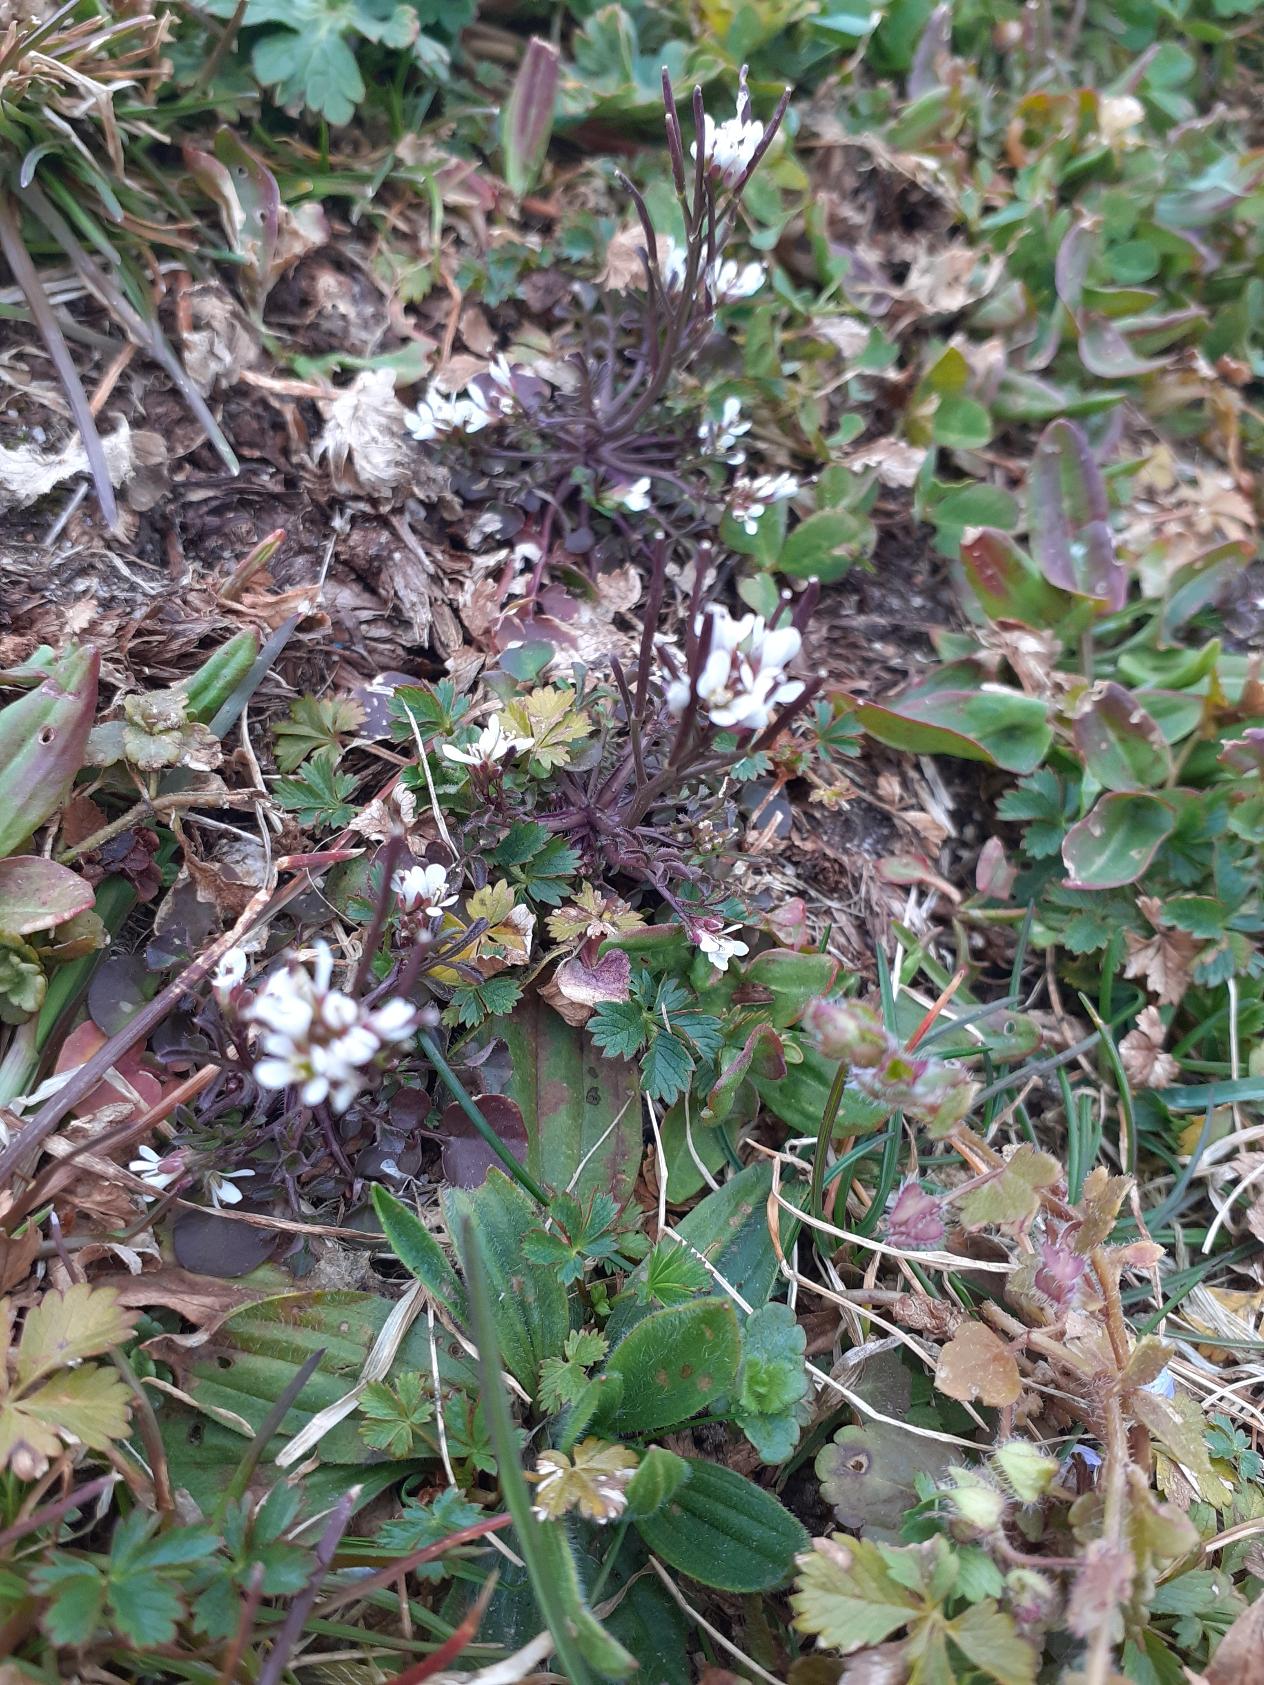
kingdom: Plantae
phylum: Tracheophyta
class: Magnoliopsida
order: Brassicales
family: Brassicaceae
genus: Cardamine
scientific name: Cardamine hirsuta
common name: Roset-springklap
